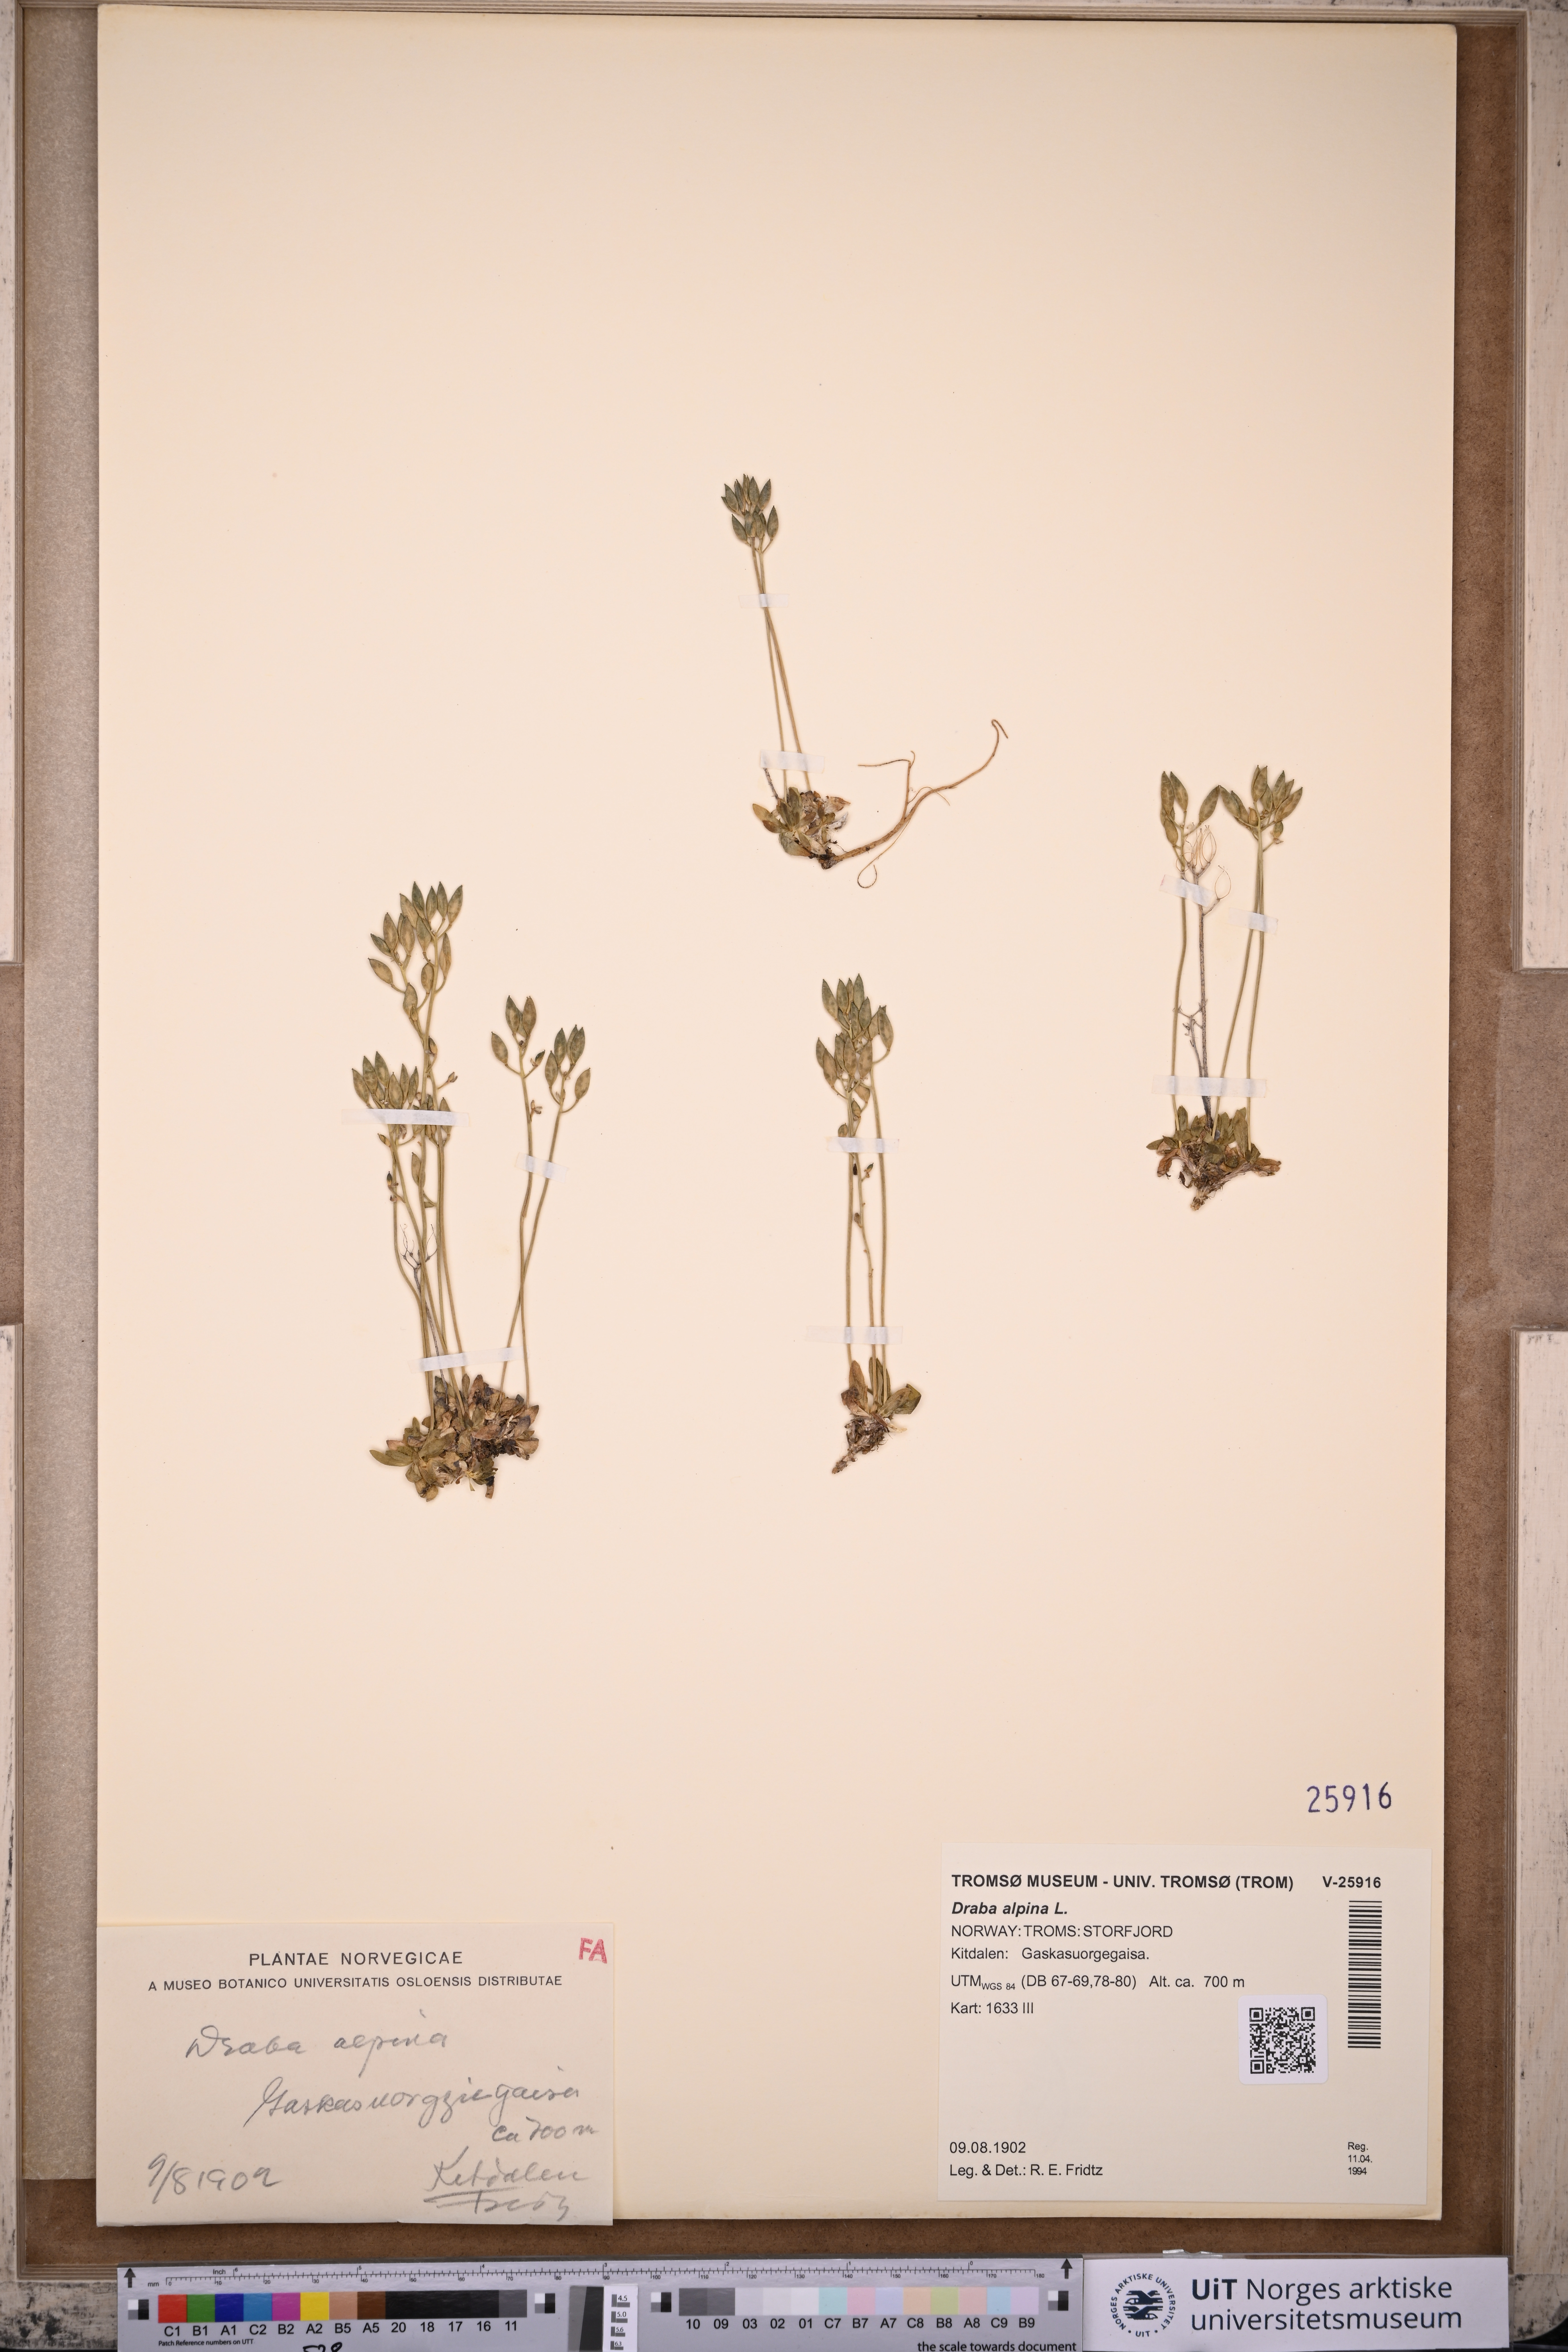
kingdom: Plantae
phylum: Tracheophyta
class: Magnoliopsida
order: Brassicales
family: Brassicaceae
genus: Draba
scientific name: Draba alpina
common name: Alpine draba
